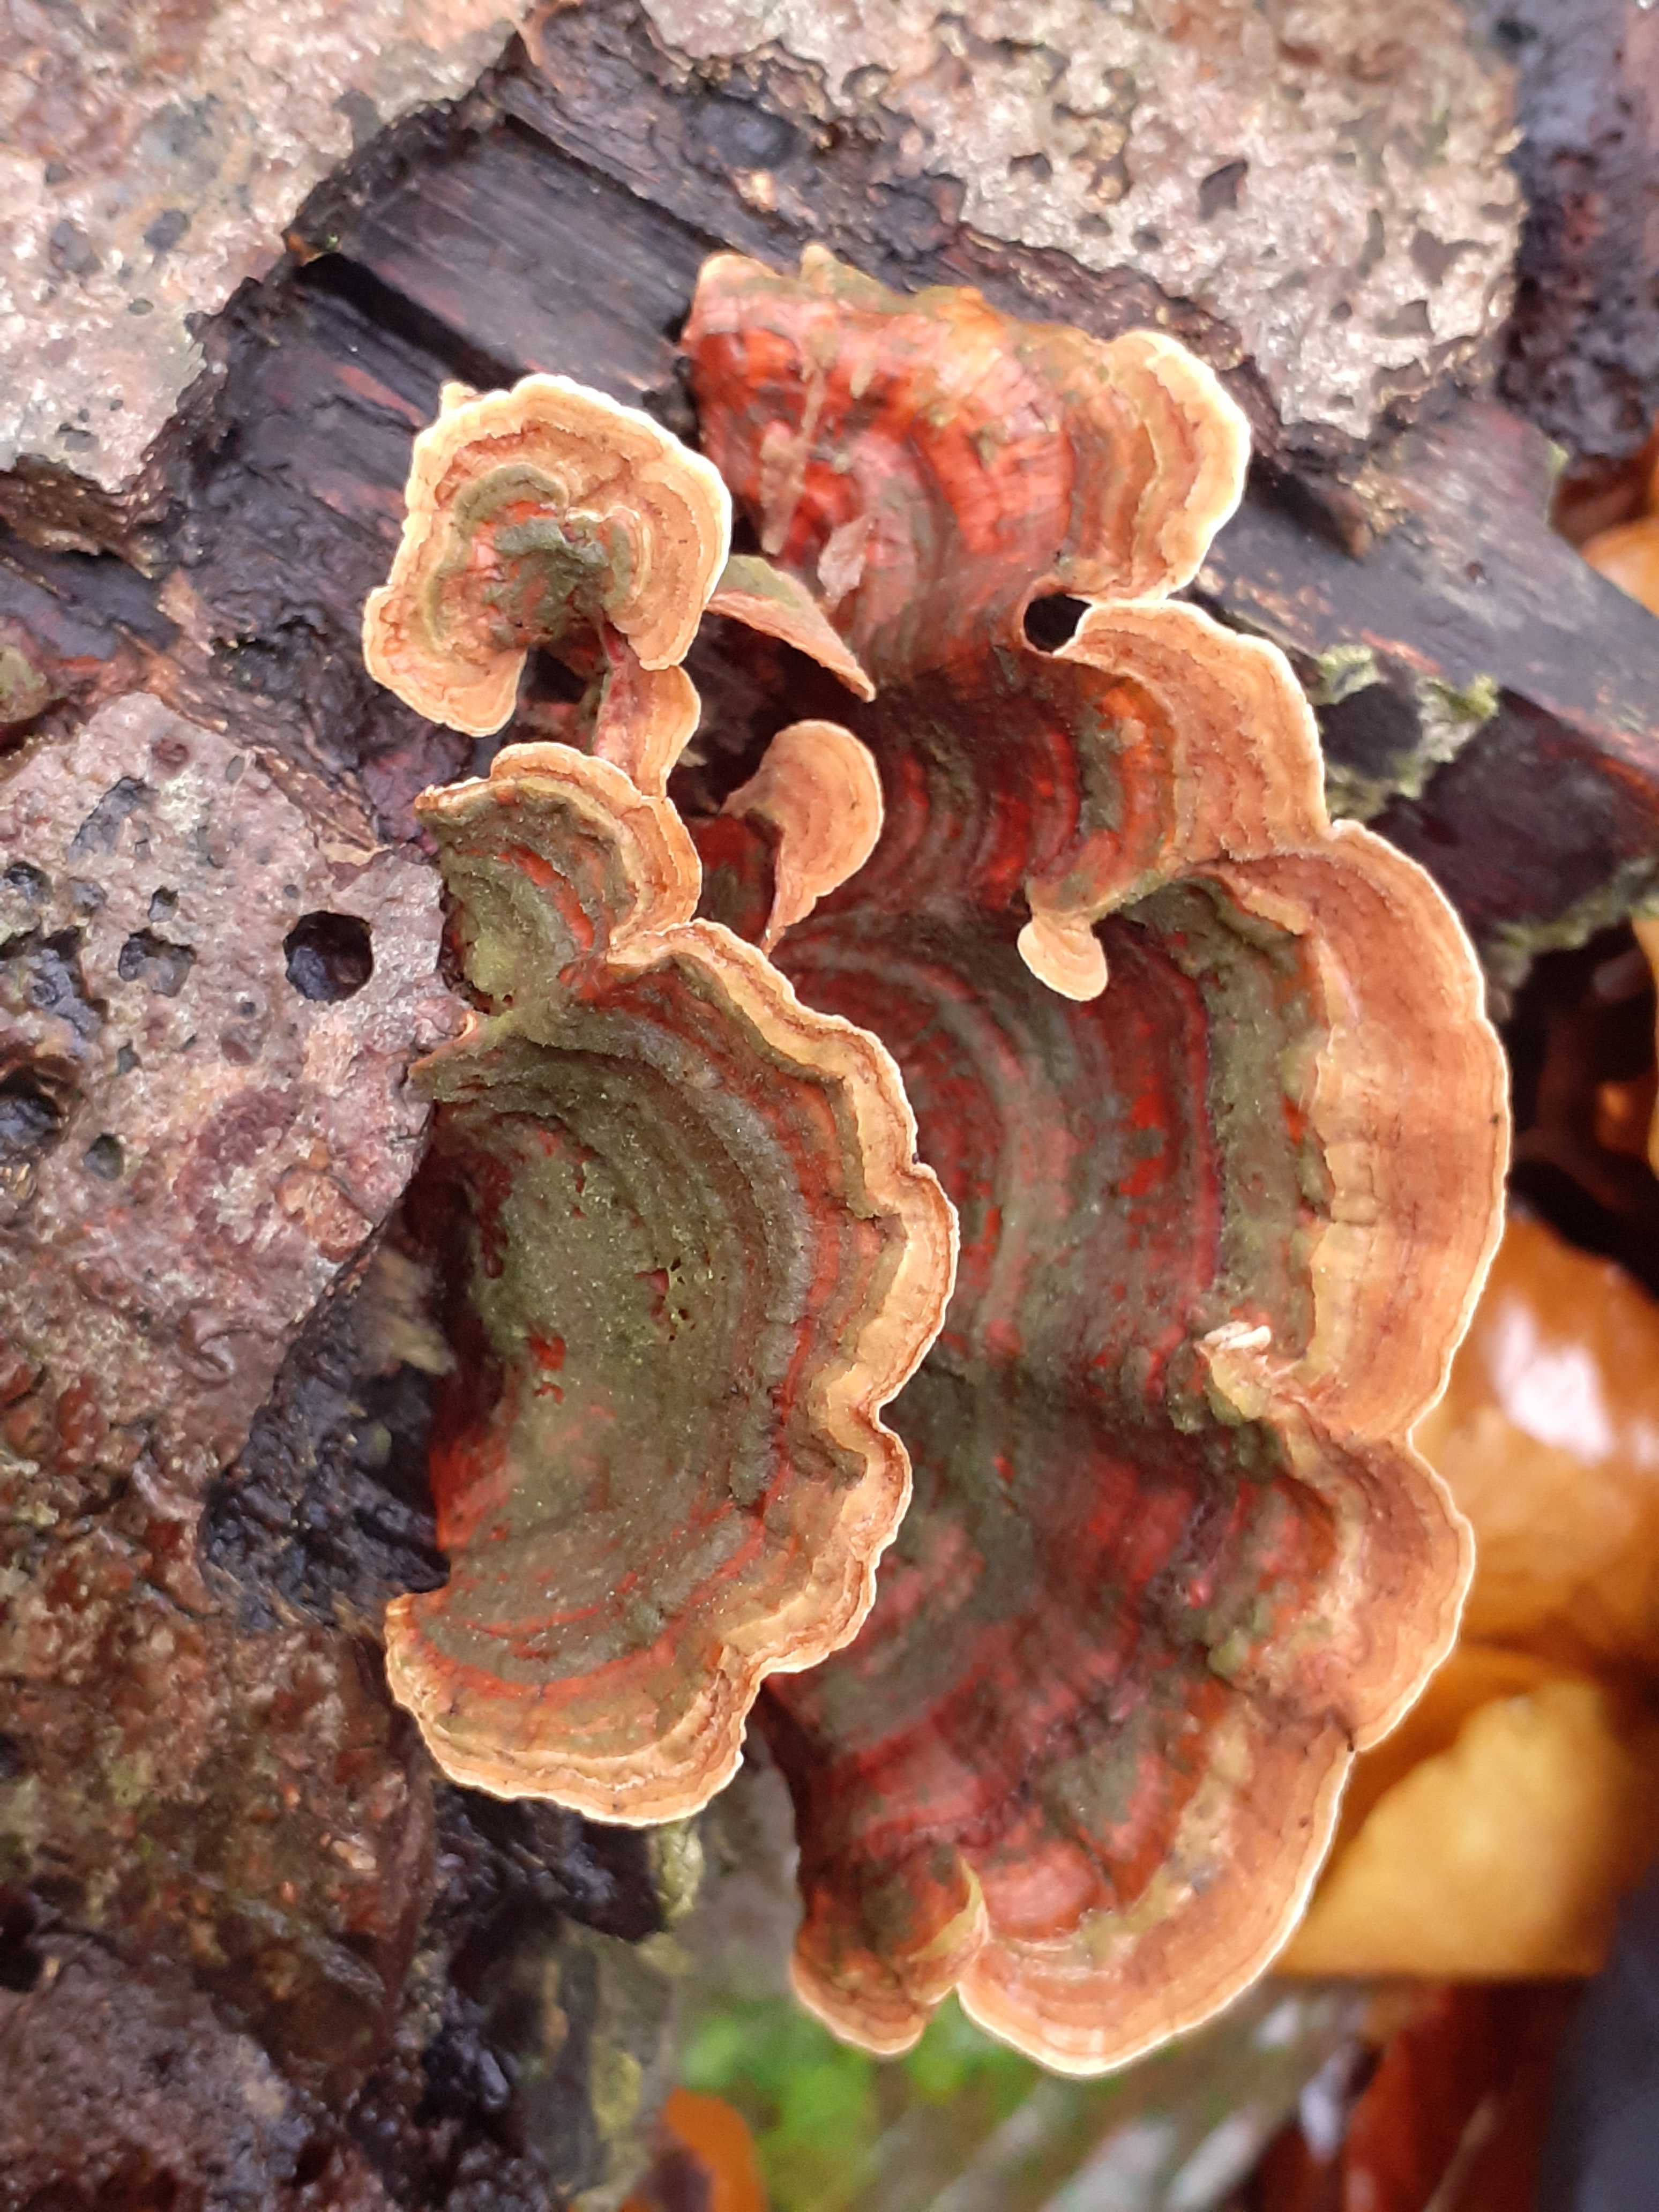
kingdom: Fungi
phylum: Basidiomycota
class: Agaricomycetes
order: Russulales
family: Stereaceae
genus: Stereum
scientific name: Stereum subtomentosum
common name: smuk lædersvamp
